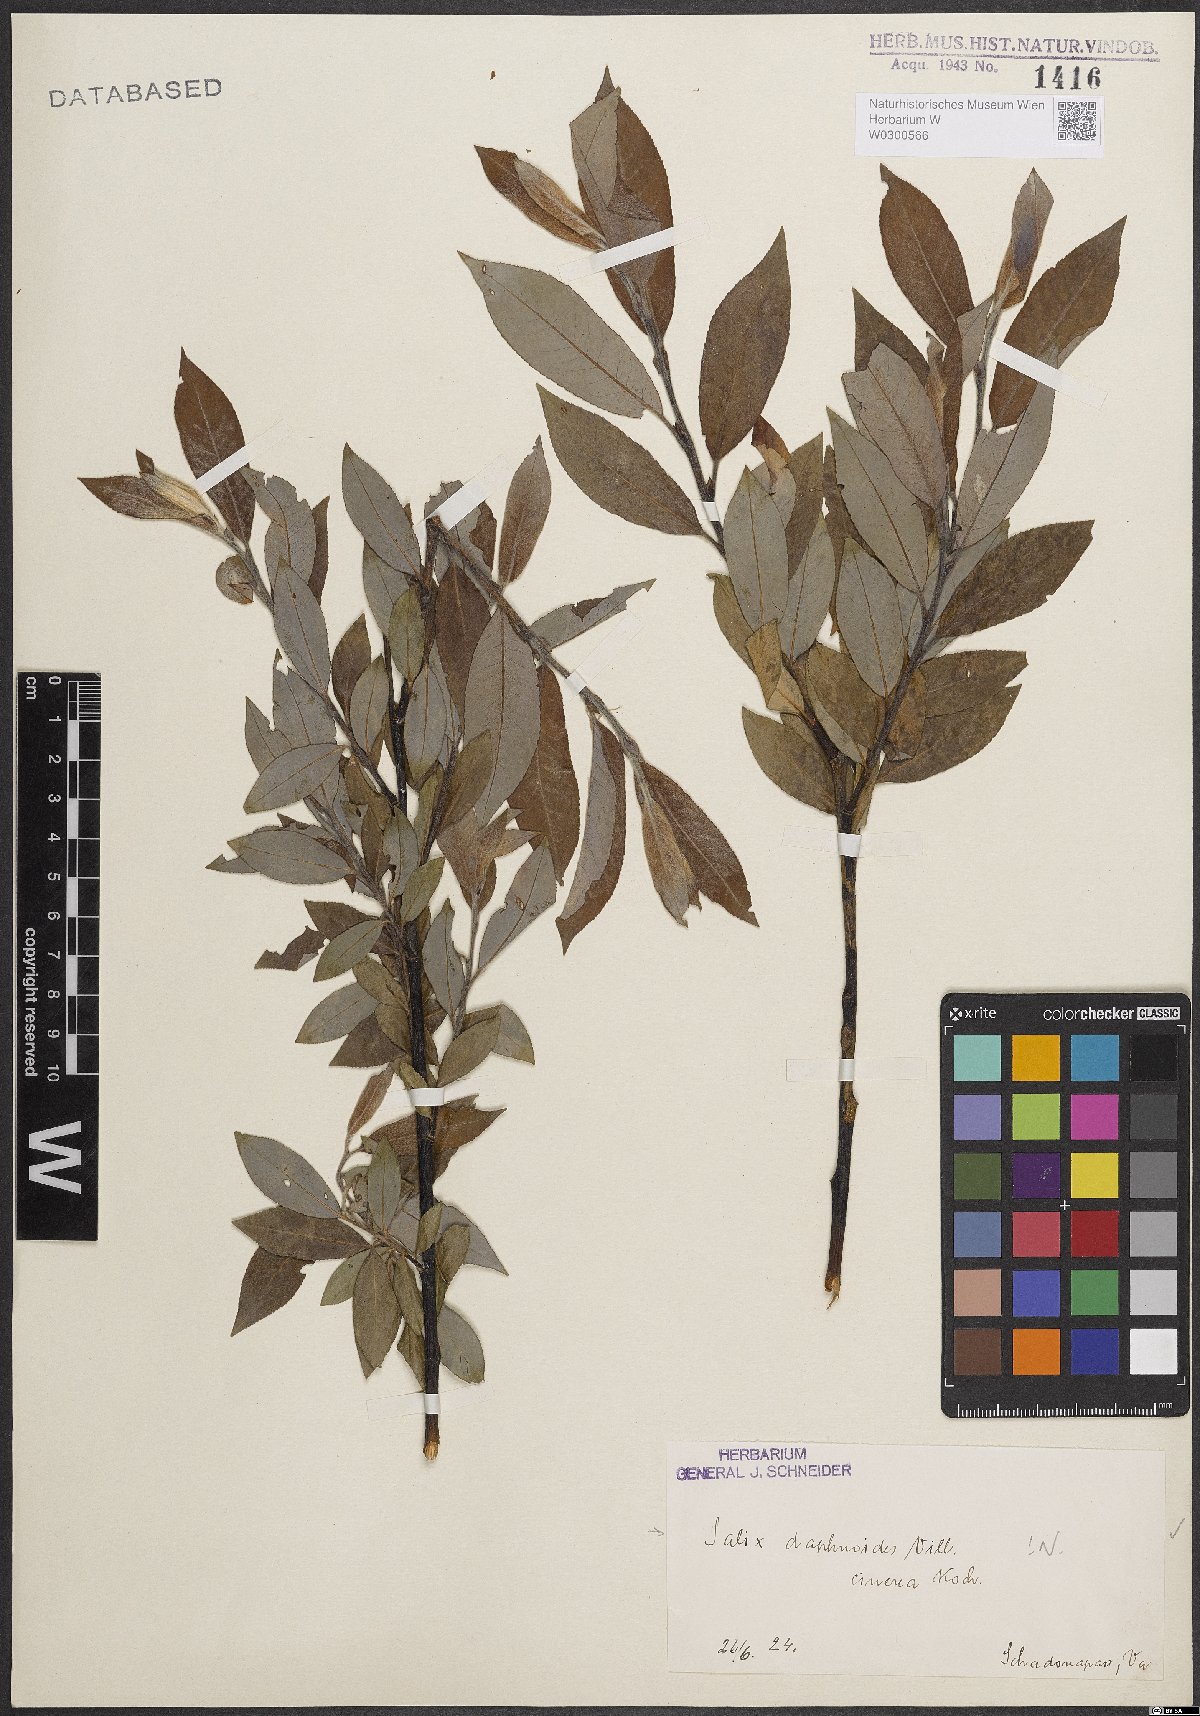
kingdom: Plantae
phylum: Tracheophyta
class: Magnoliopsida
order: Malpighiales
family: Salicaceae
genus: Salix
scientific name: Salix daphnoides
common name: European violet-willow
